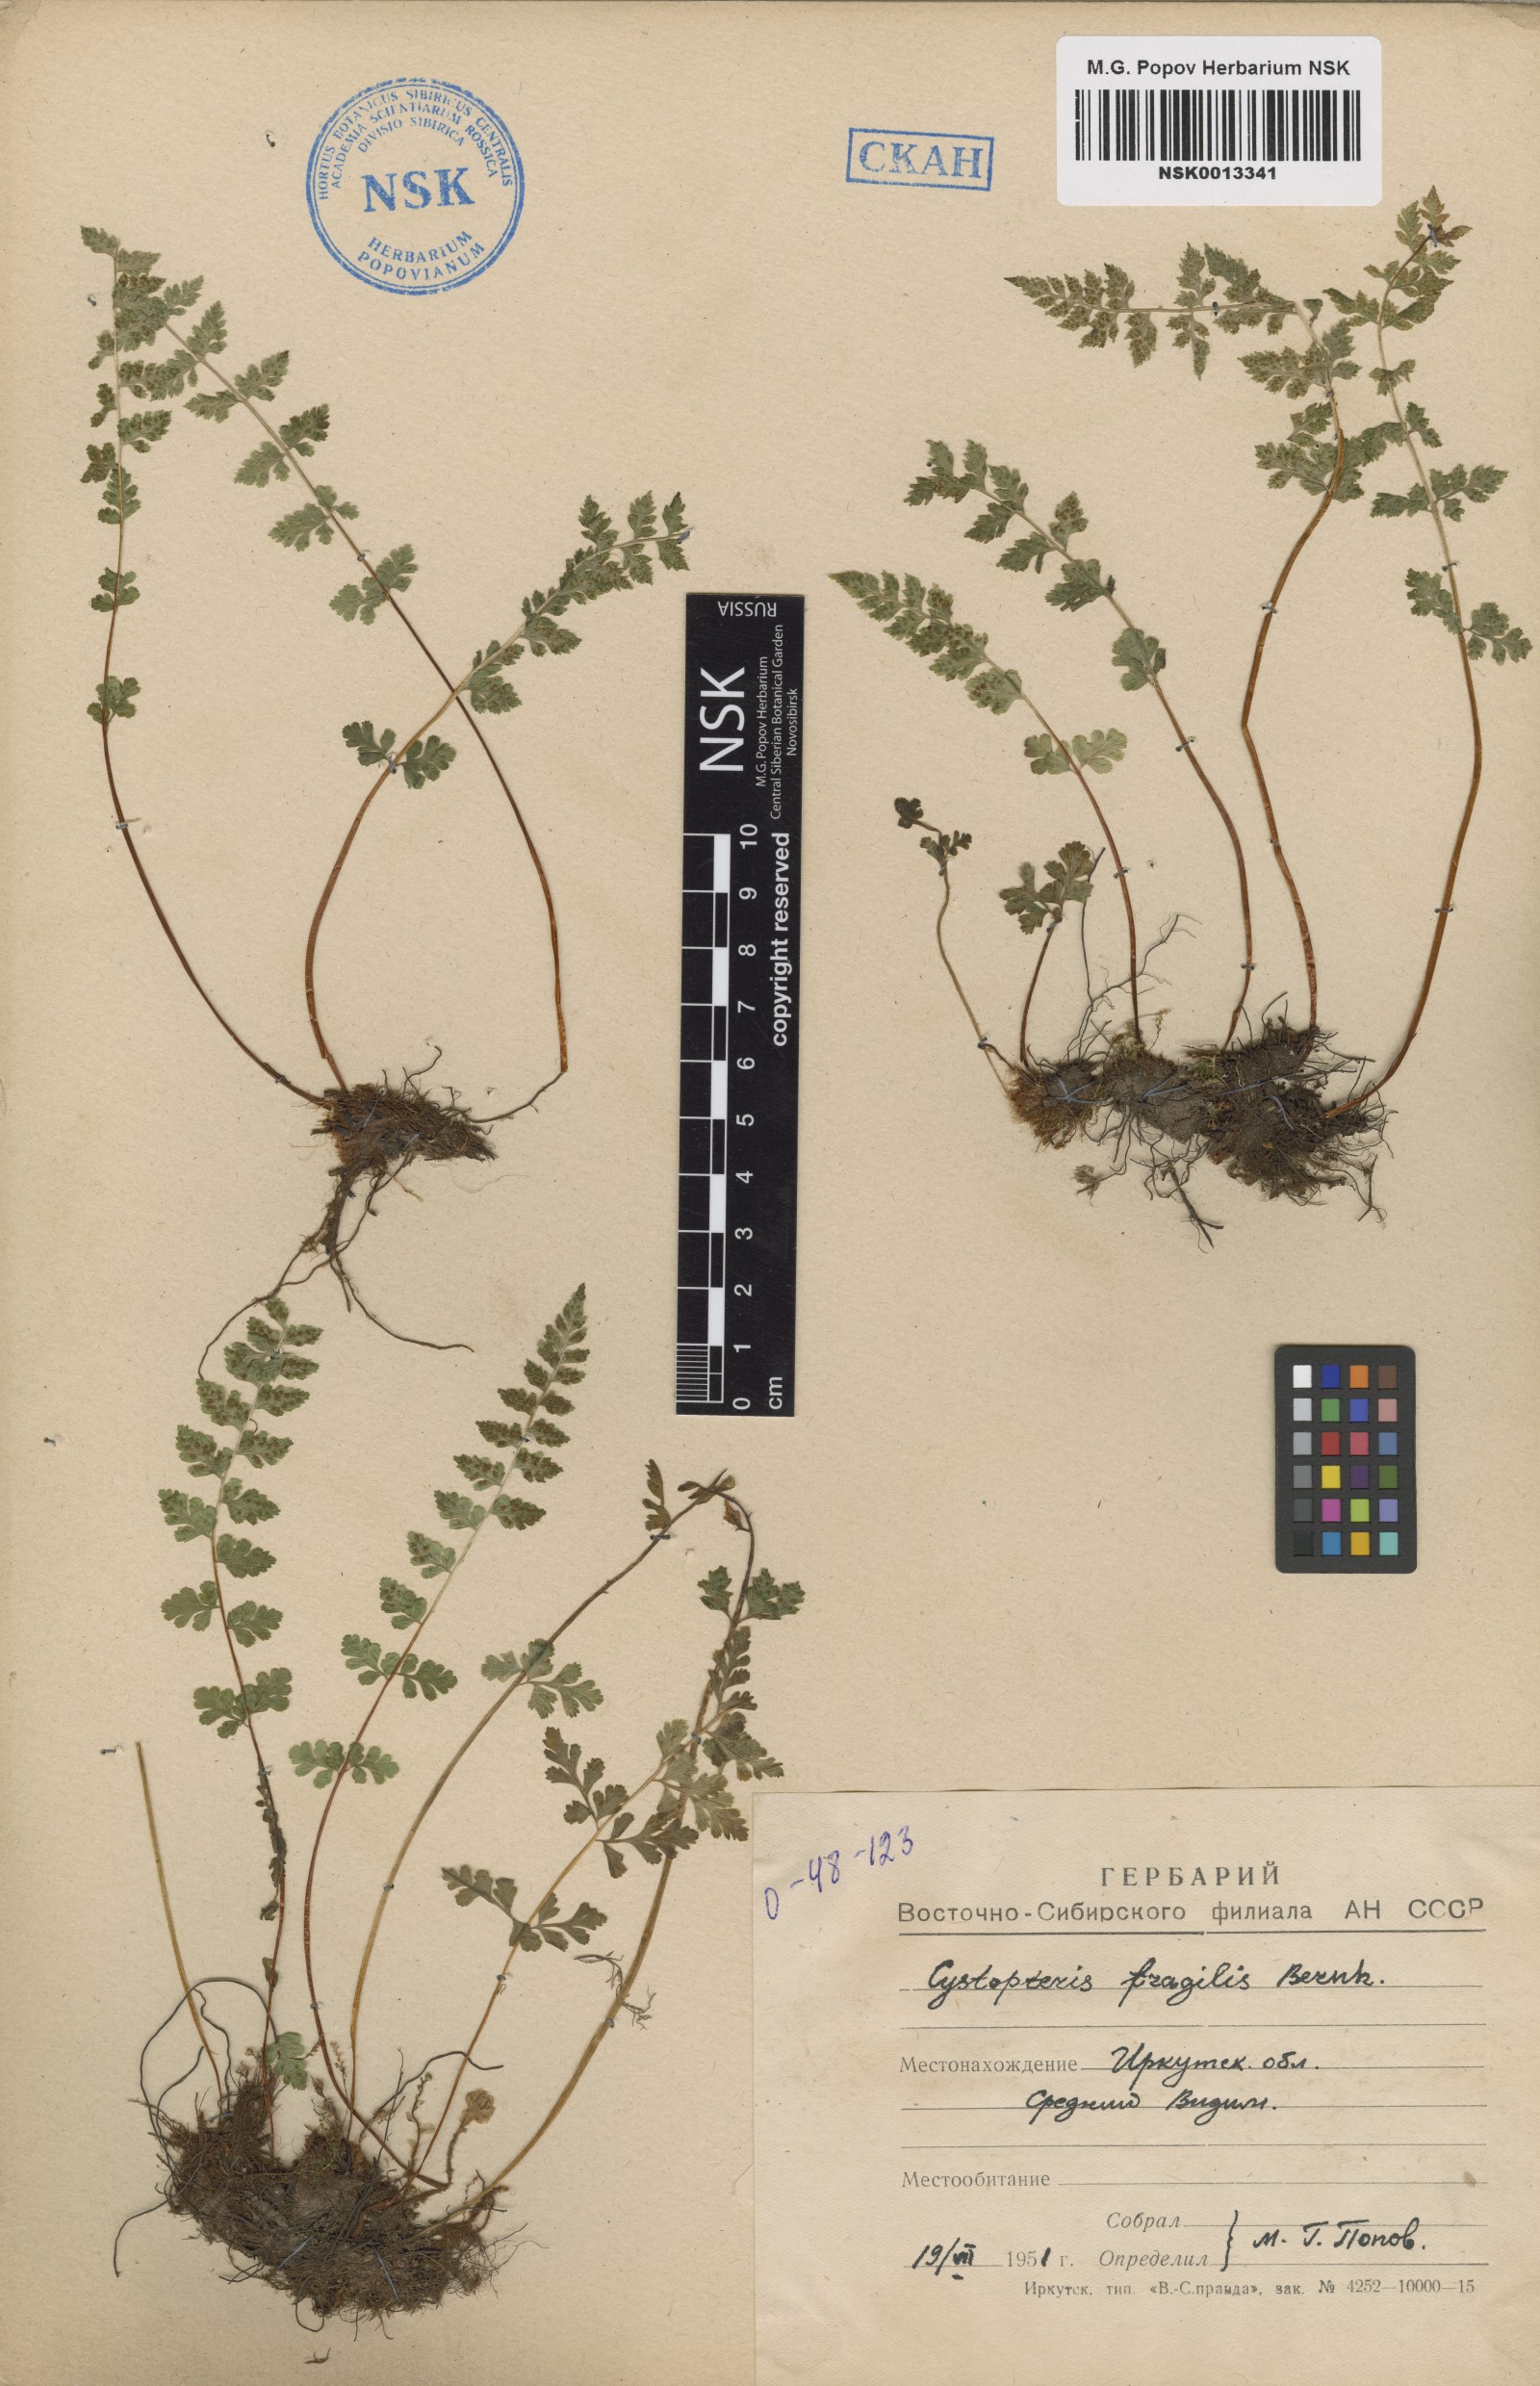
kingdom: Plantae
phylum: Tracheophyta
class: Polypodiopsida
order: Polypodiales
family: Cystopteridaceae
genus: Cystopteris
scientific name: Cystopteris fragilis
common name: Brittle bladder fern
